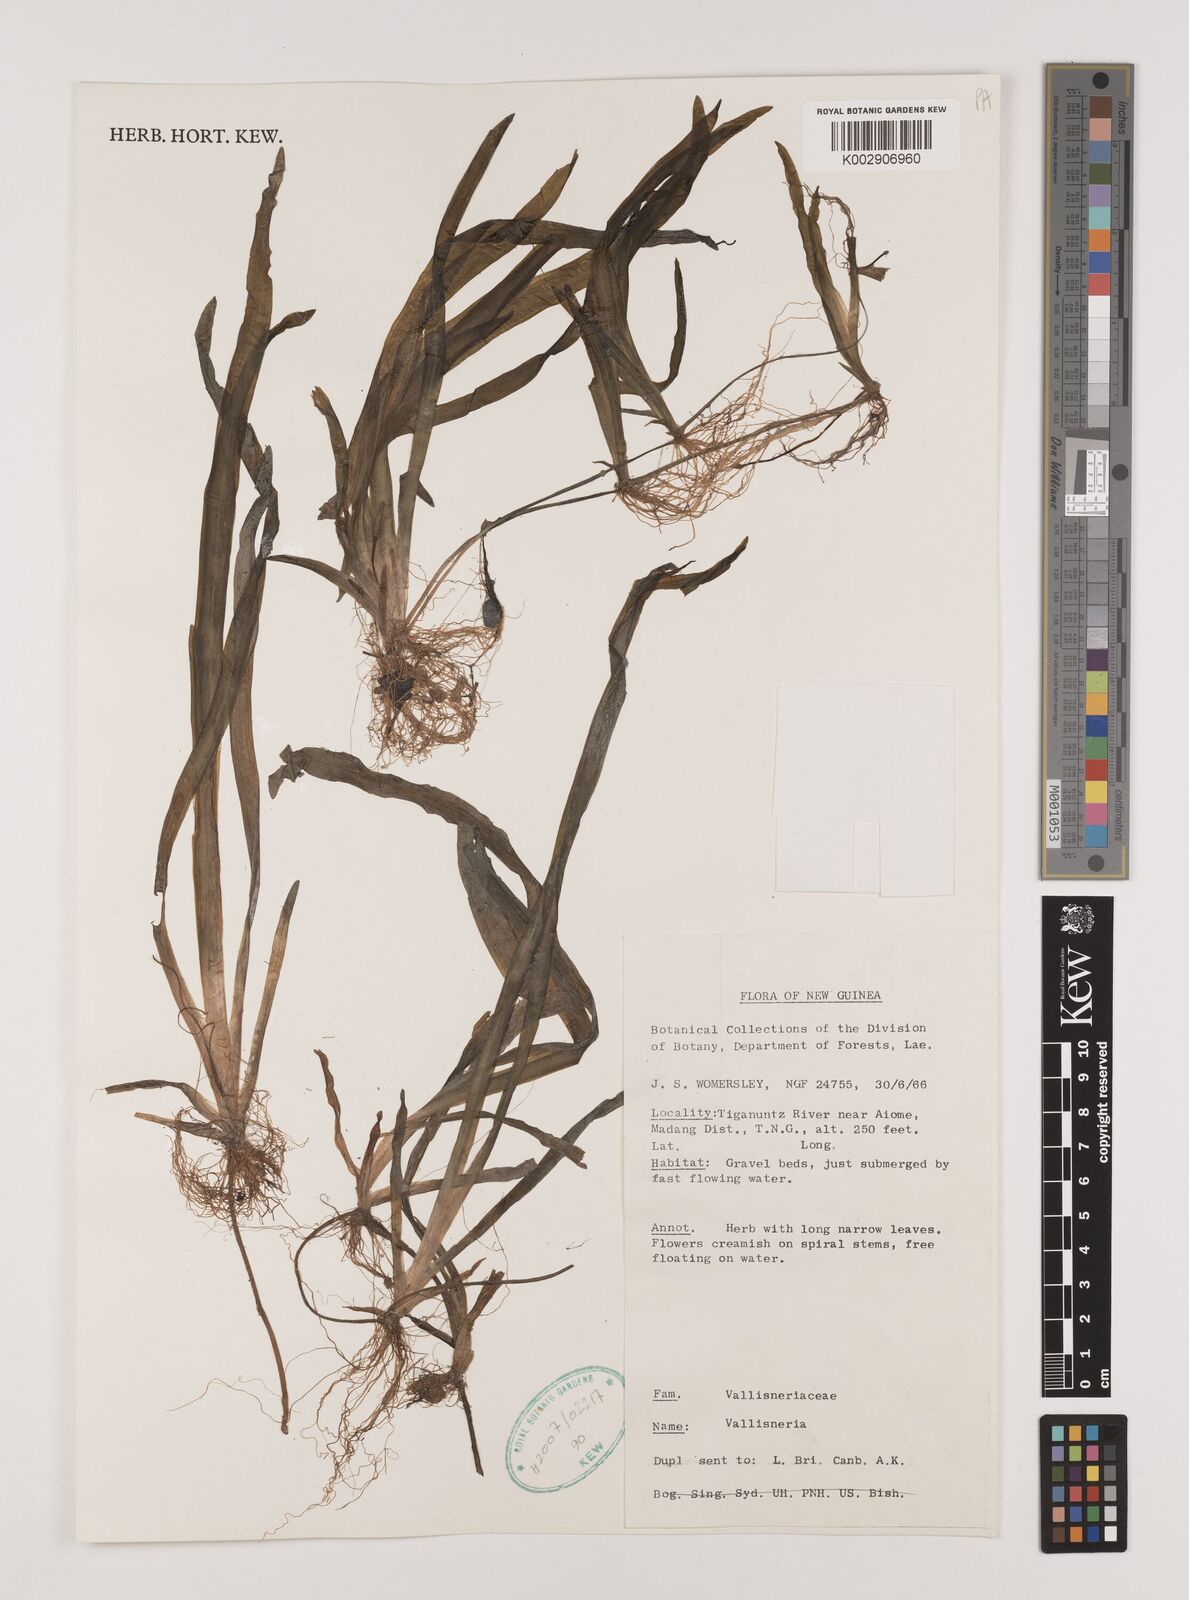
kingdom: Plantae
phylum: Tracheophyta
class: Liliopsida
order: Alismatales
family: Hydrocharitaceae
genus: Vallisneria
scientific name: Vallisneria
